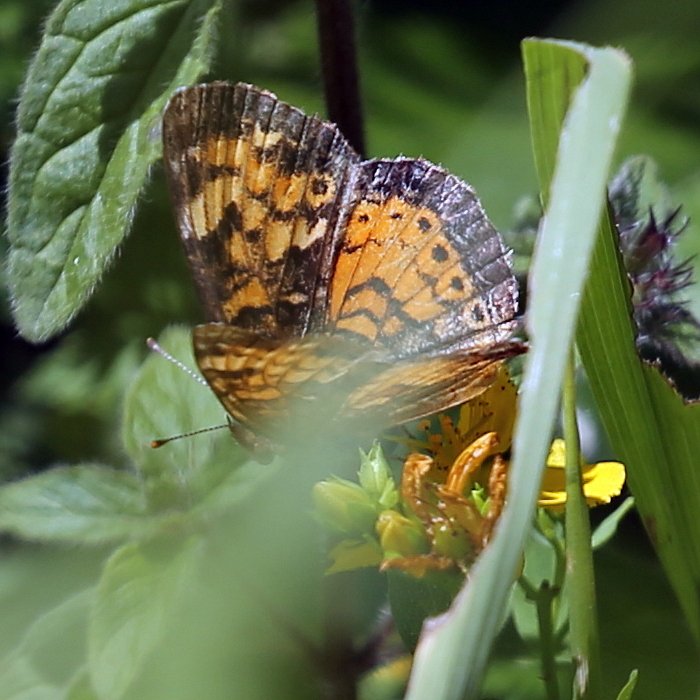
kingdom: Animalia
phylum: Arthropoda
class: Insecta
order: Lepidoptera
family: Nymphalidae
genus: Phyciodes
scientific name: Phyciodes tharos
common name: Pearl Crescent
